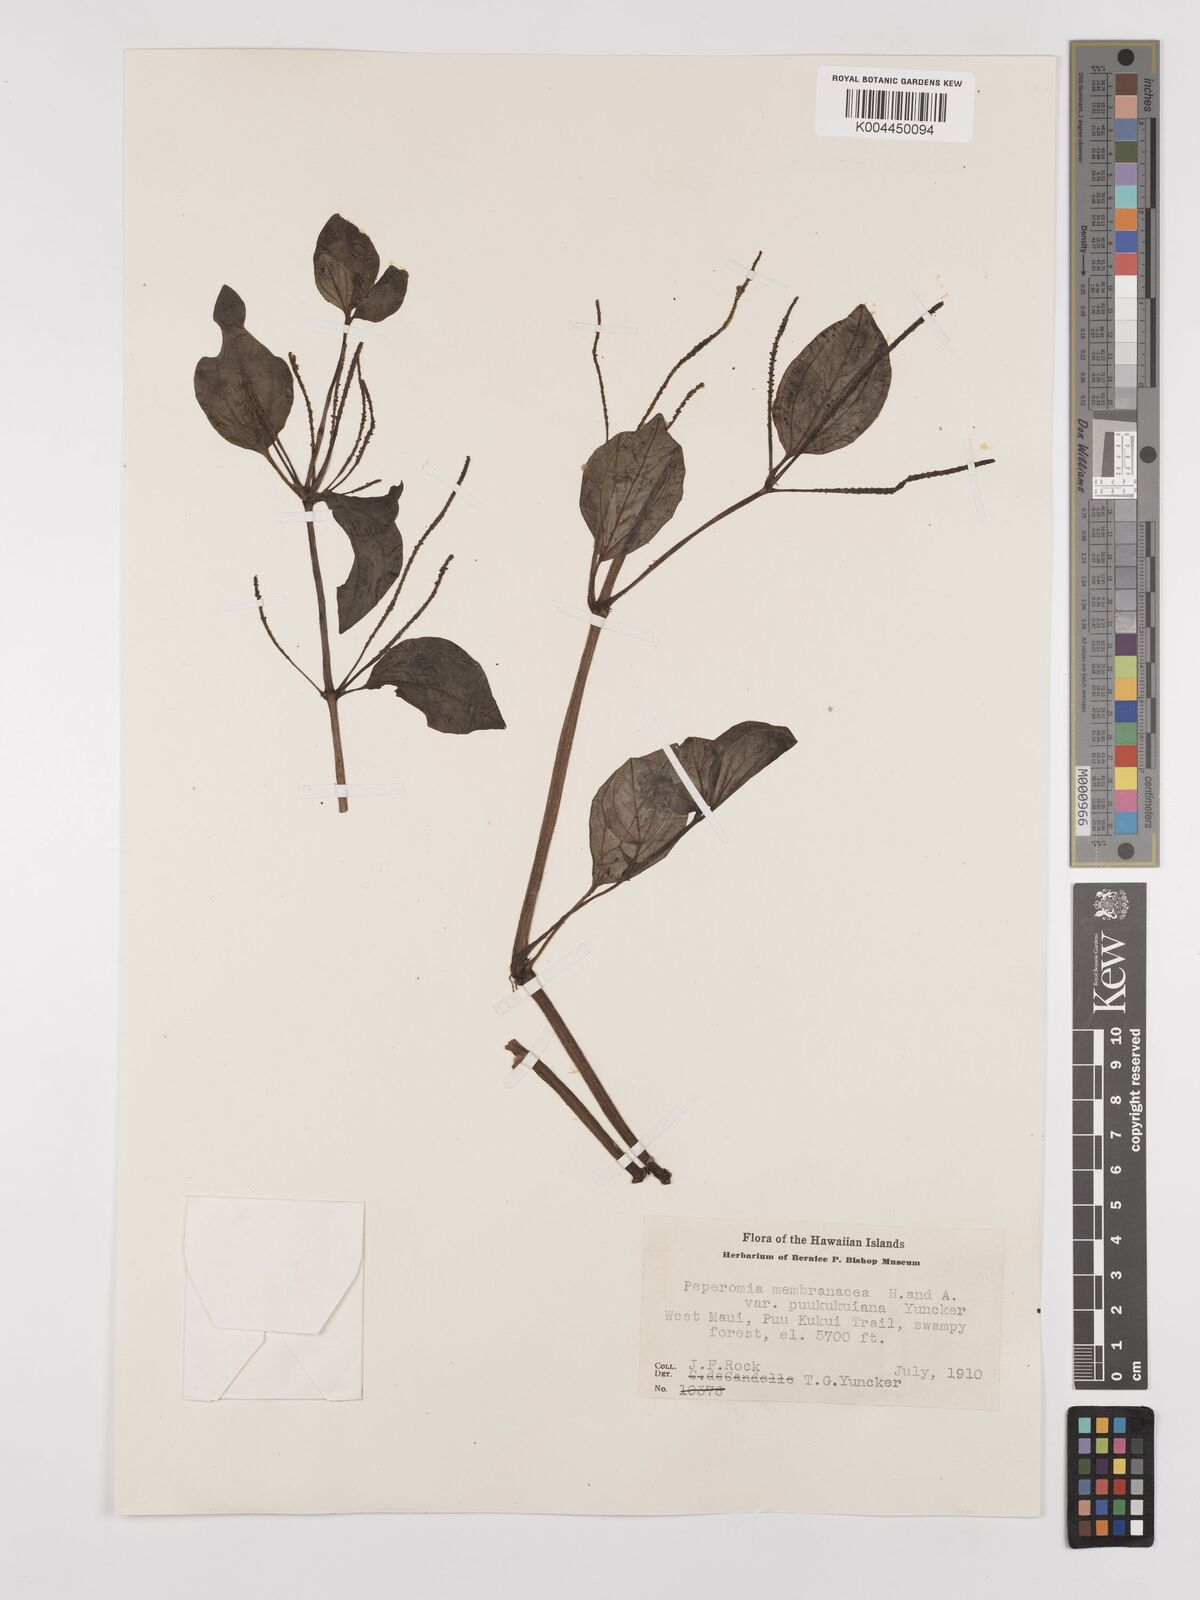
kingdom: Plantae
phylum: Tracheophyta
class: Magnoliopsida
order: Piperales
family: Piperaceae
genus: Peperomia
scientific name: Peperomia
